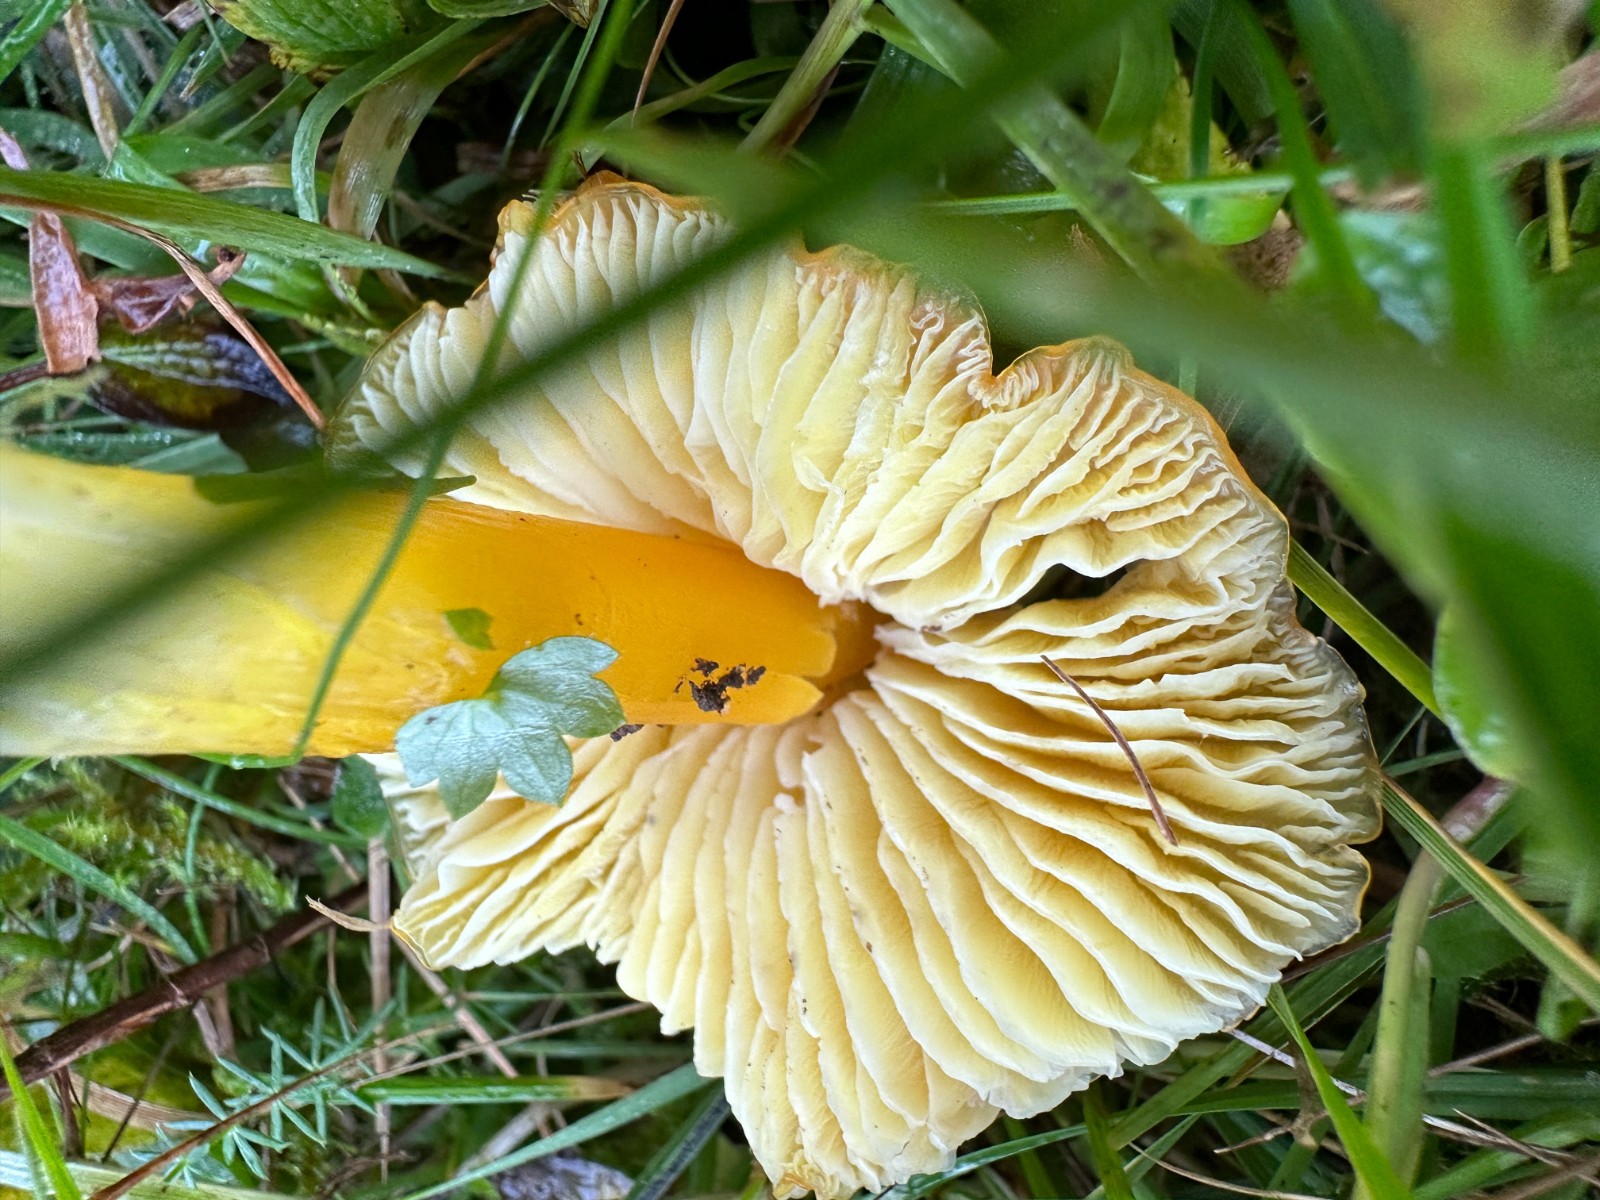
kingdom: Fungi
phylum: Basidiomycota
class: Agaricomycetes
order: Agaricales
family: Hygrophoraceae
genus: Hygrocybe
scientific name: Hygrocybe chlorophana
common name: gul vokshat
